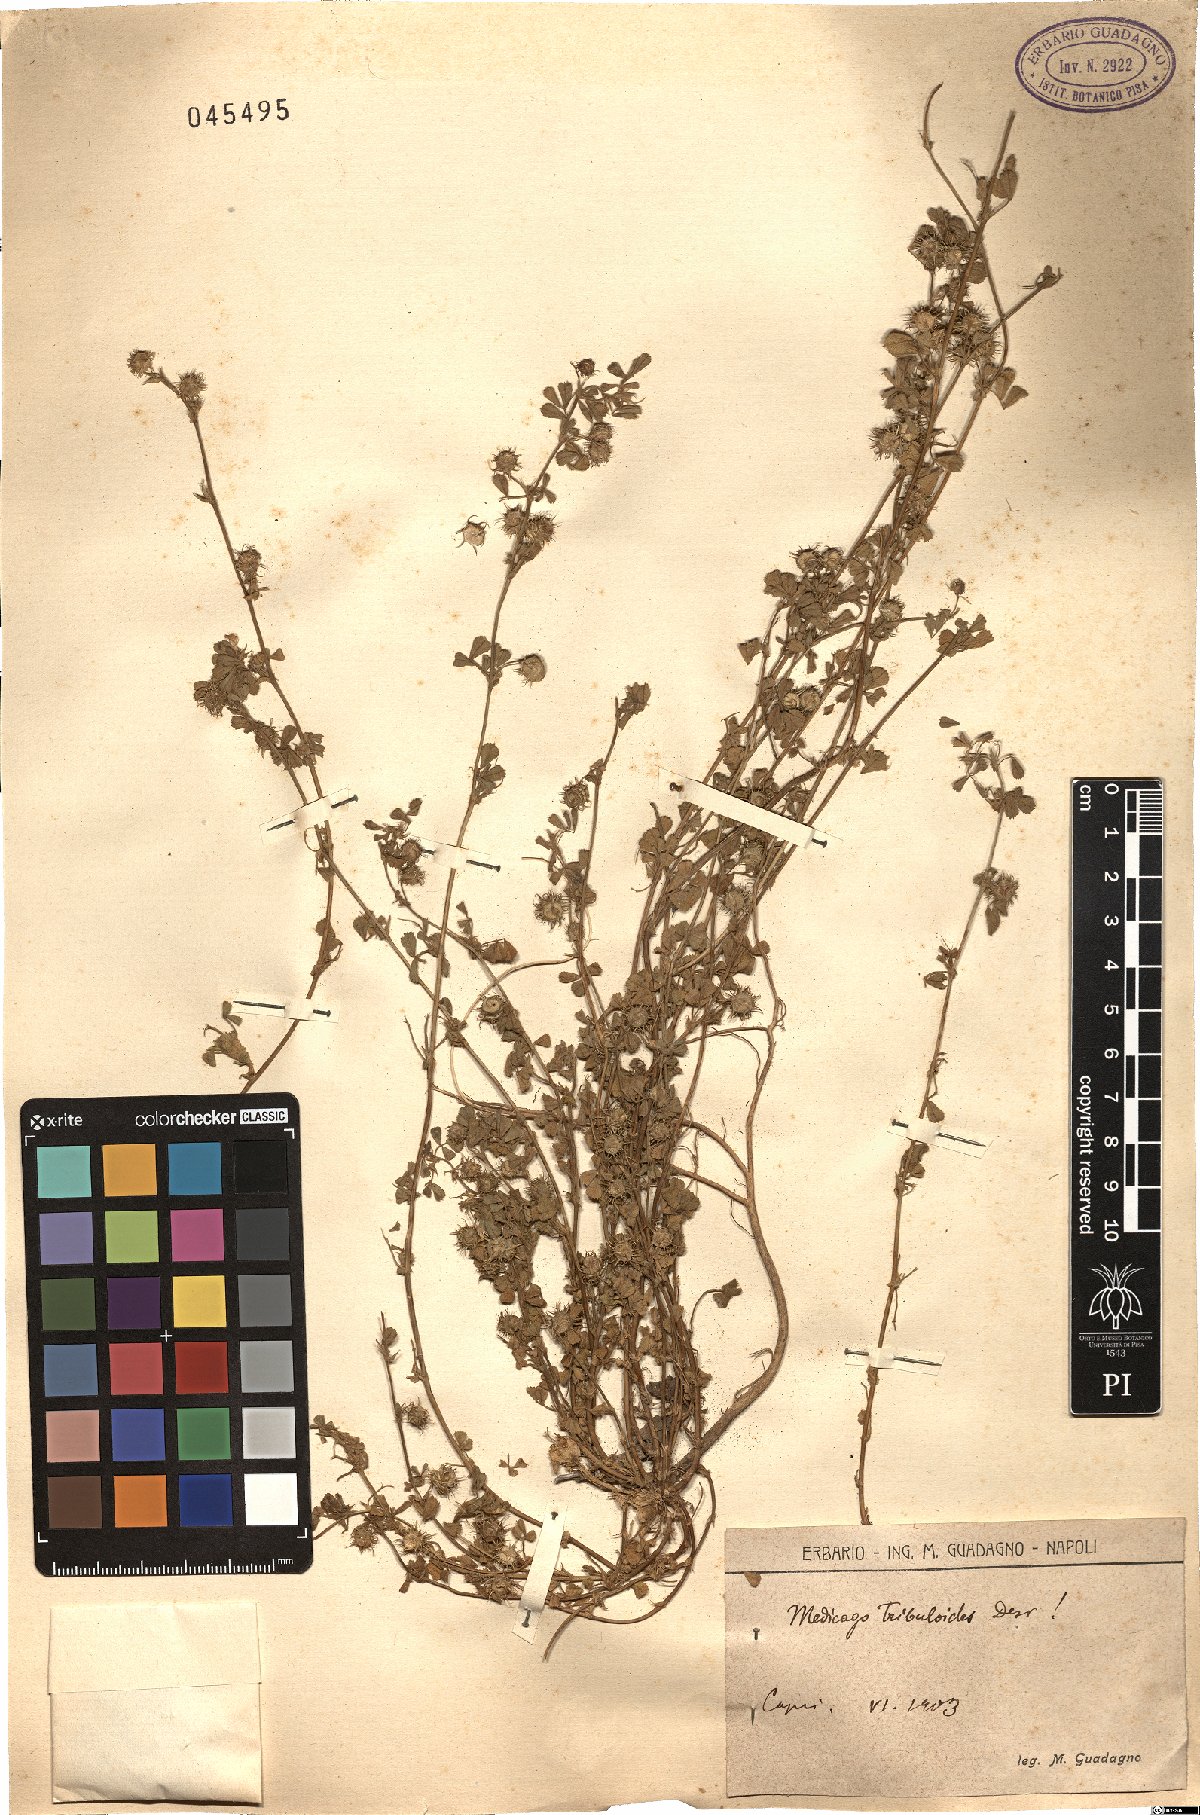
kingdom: Plantae
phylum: Tracheophyta
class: Magnoliopsida
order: Fabales
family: Fabaceae
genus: Medicago
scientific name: Medicago truncatula
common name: Strong-spined medick
